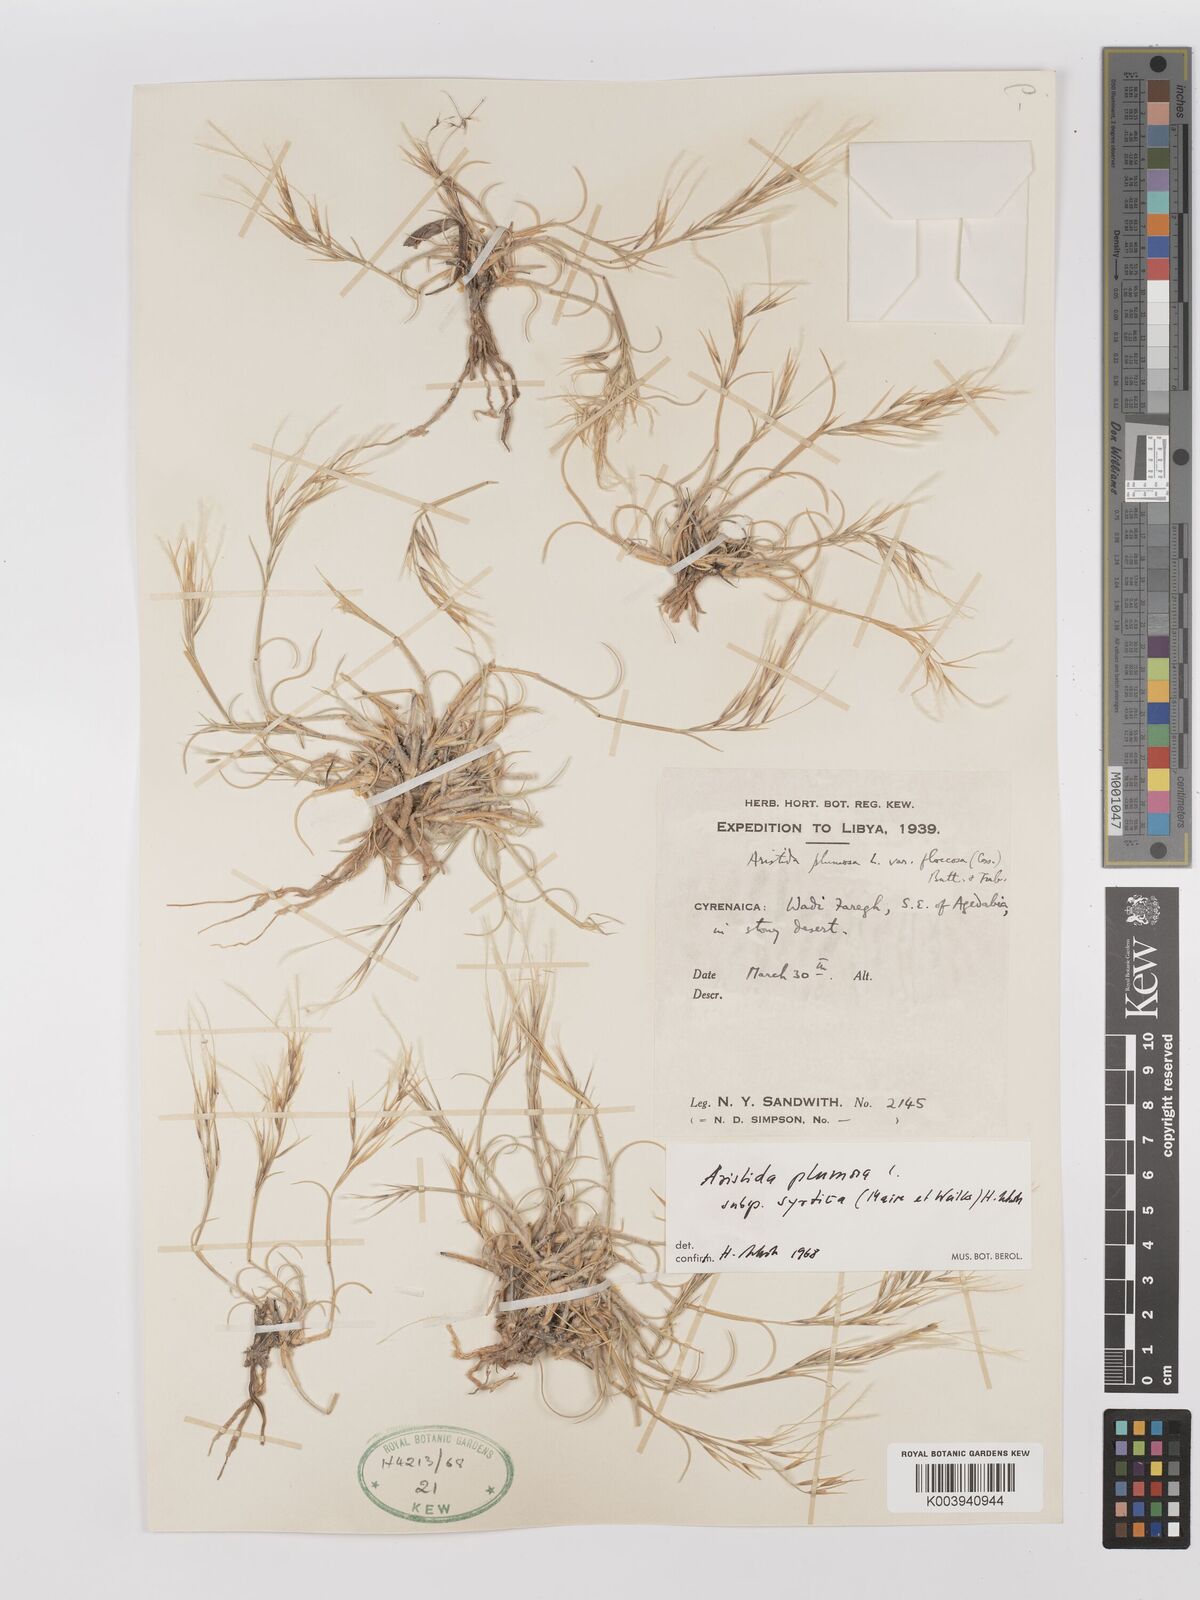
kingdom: Plantae
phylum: Tracheophyta
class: Liliopsida
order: Poales
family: Poaceae
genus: Stipagrostis
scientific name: Stipagrostis plumosa
